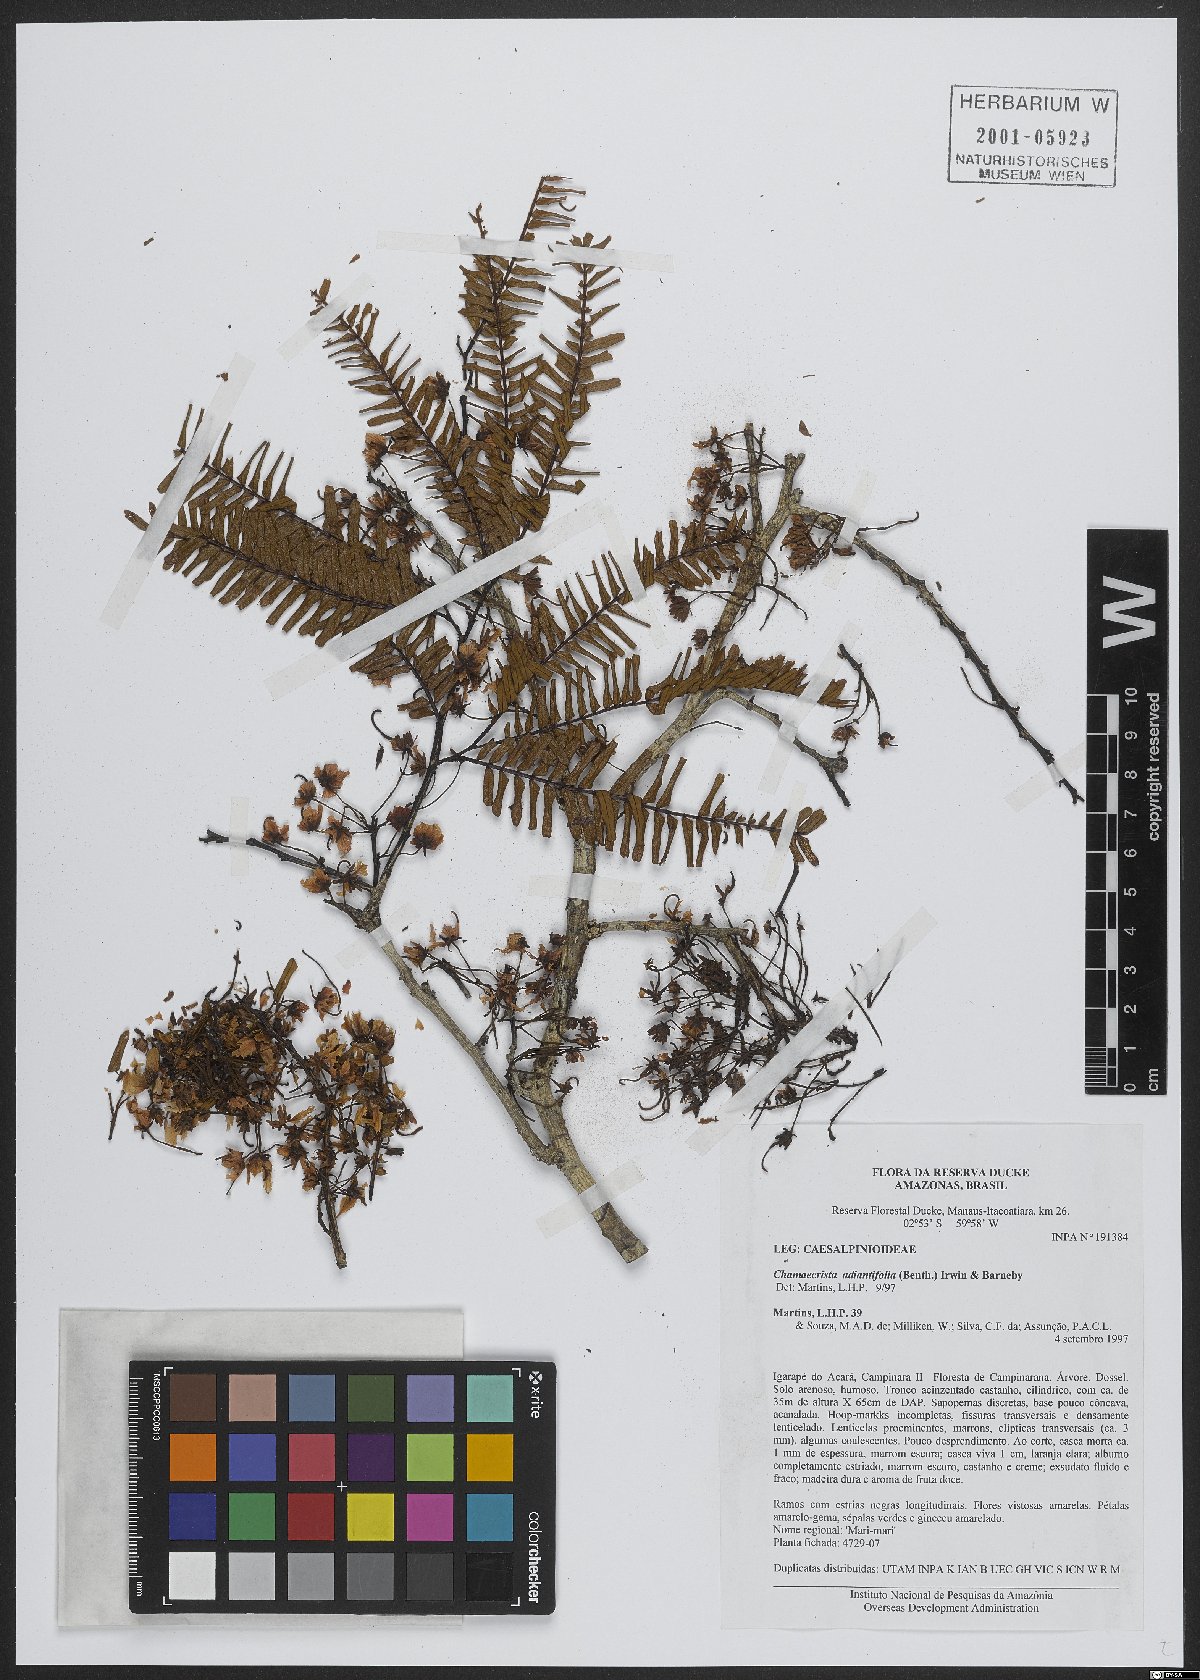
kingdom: Plantae
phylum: Tracheophyta
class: Magnoliopsida
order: Fabales
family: Fabaceae
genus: Chamaecrista
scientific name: Chamaecrista adiantifolia
